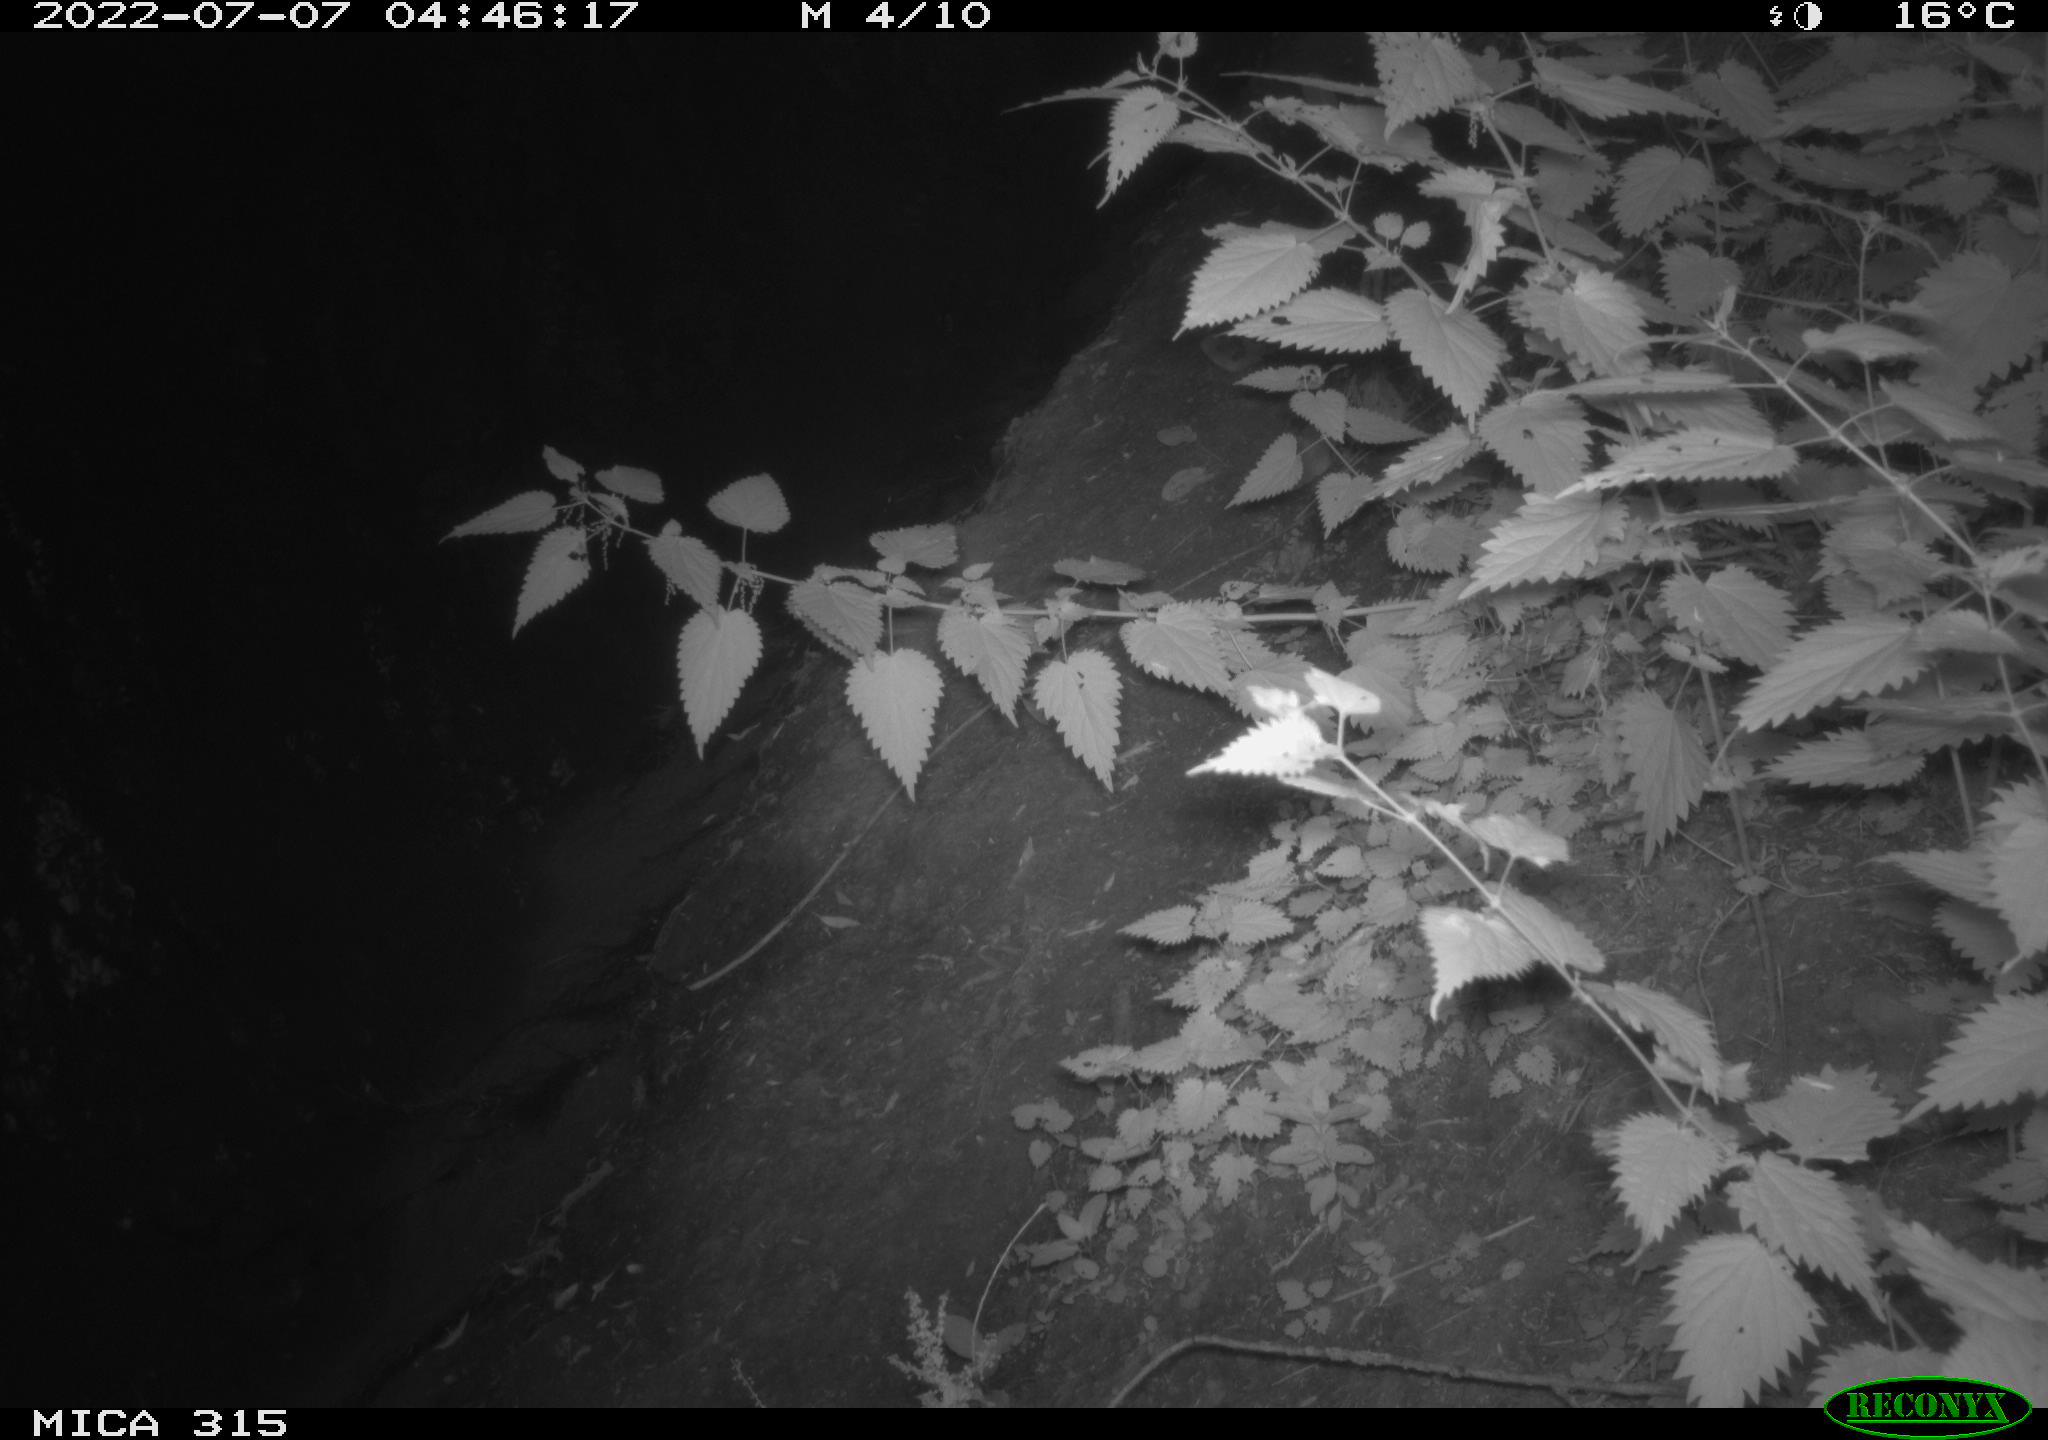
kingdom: Animalia
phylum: Chordata
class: Mammalia
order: Carnivora
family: Canidae
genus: Vulpes
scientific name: Vulpes vulpes
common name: Red fox
